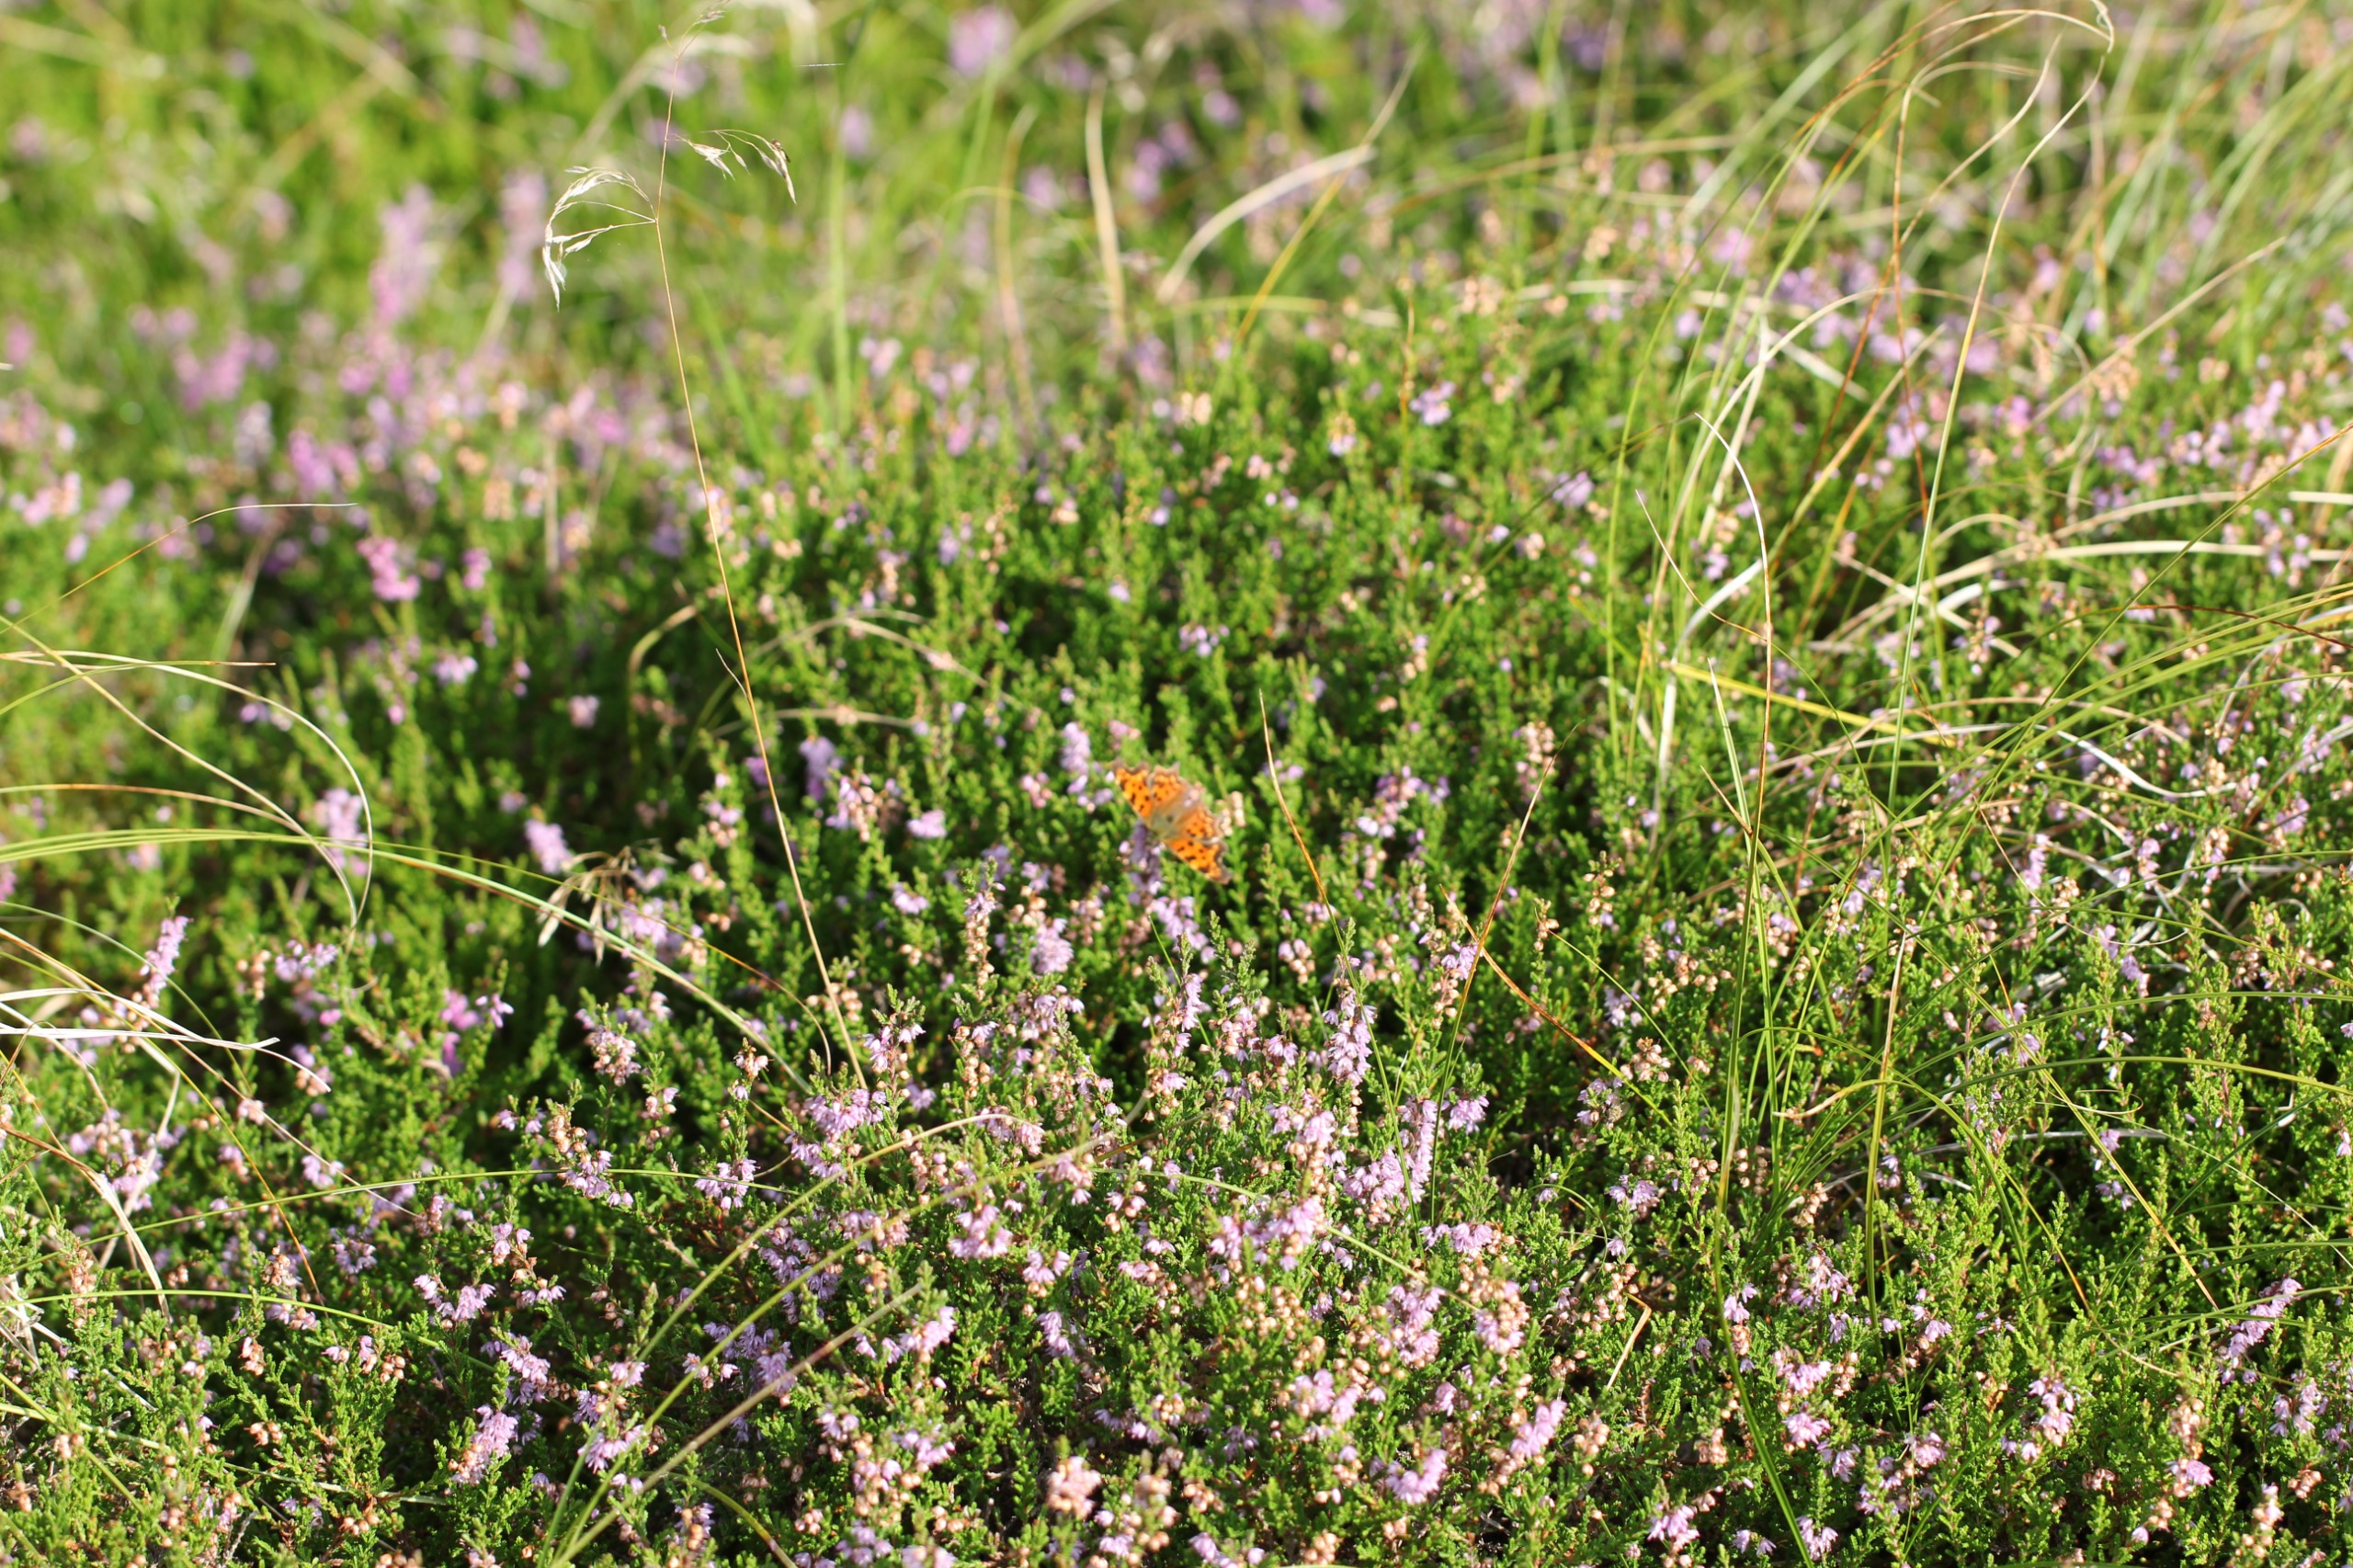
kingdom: Animalia
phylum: Arthropoda
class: Insecta
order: Lepidoptera
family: Nymphalidae
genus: Polygonia
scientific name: Polygonia c-album
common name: Det hvide C
